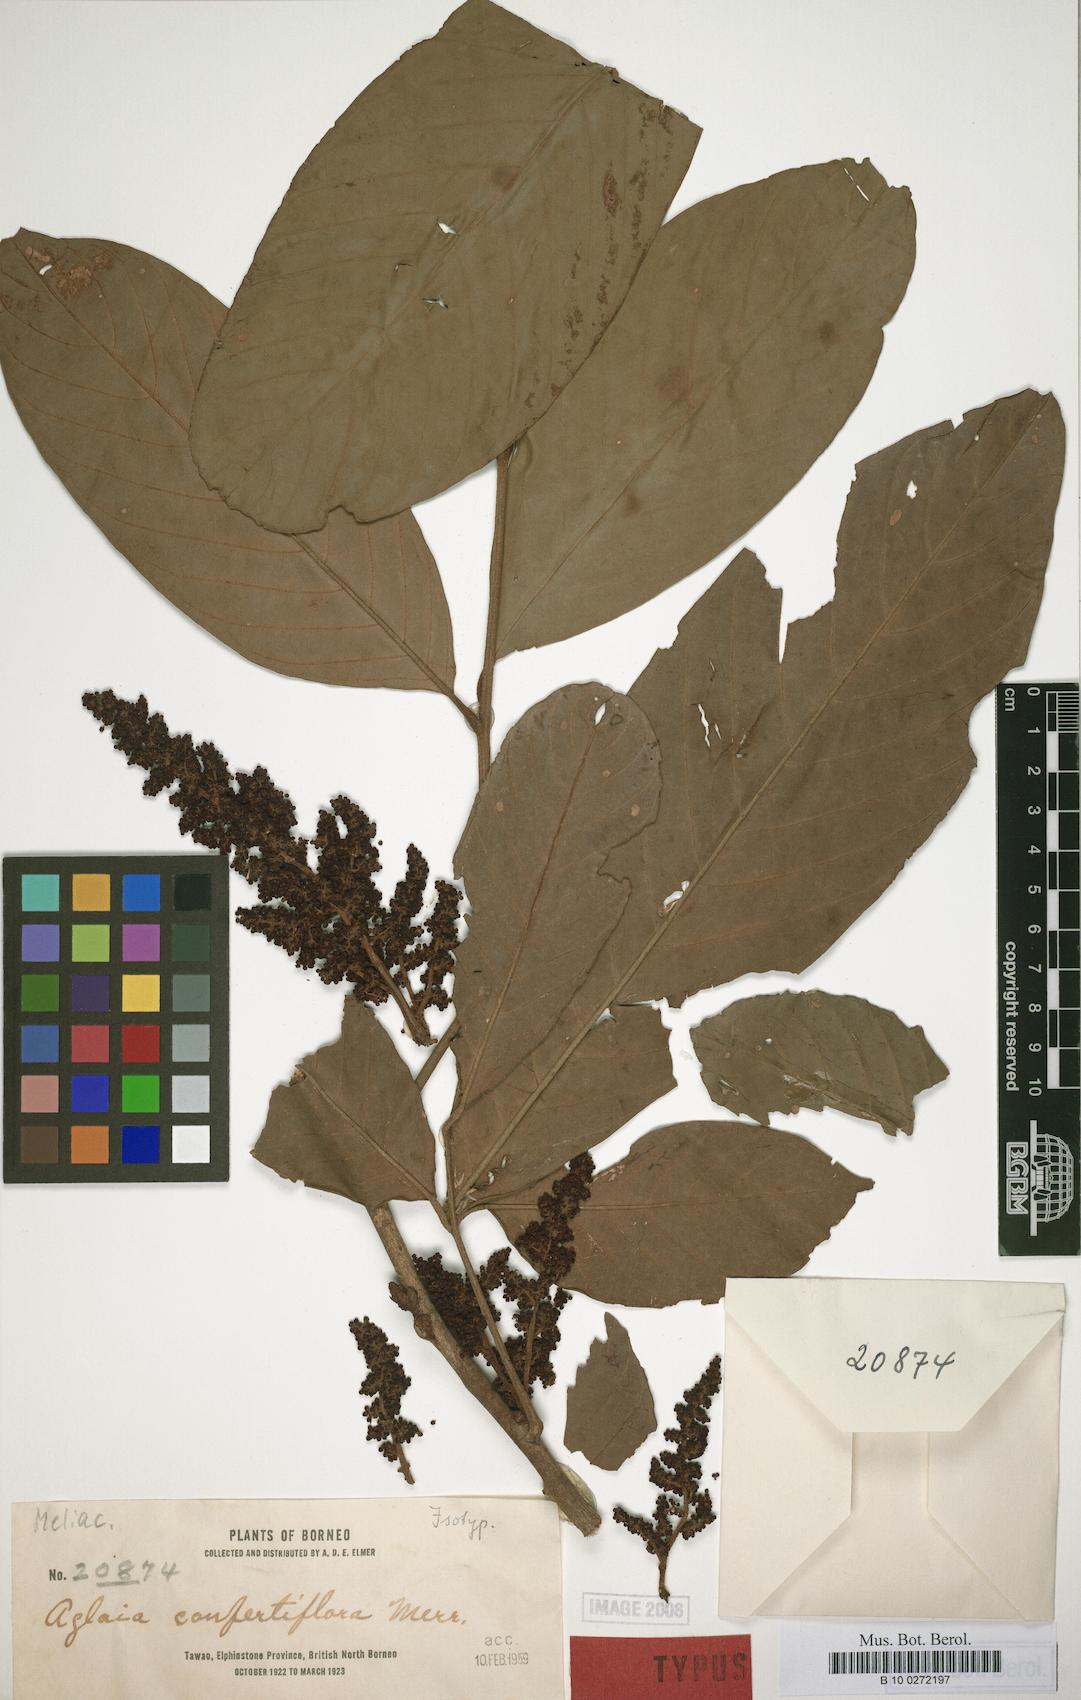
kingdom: Plantae
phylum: Tracheophyta
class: Magnoliopsida
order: Sapindales
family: Meliaceae
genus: Aglaia
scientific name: Aglaia korthalsii
